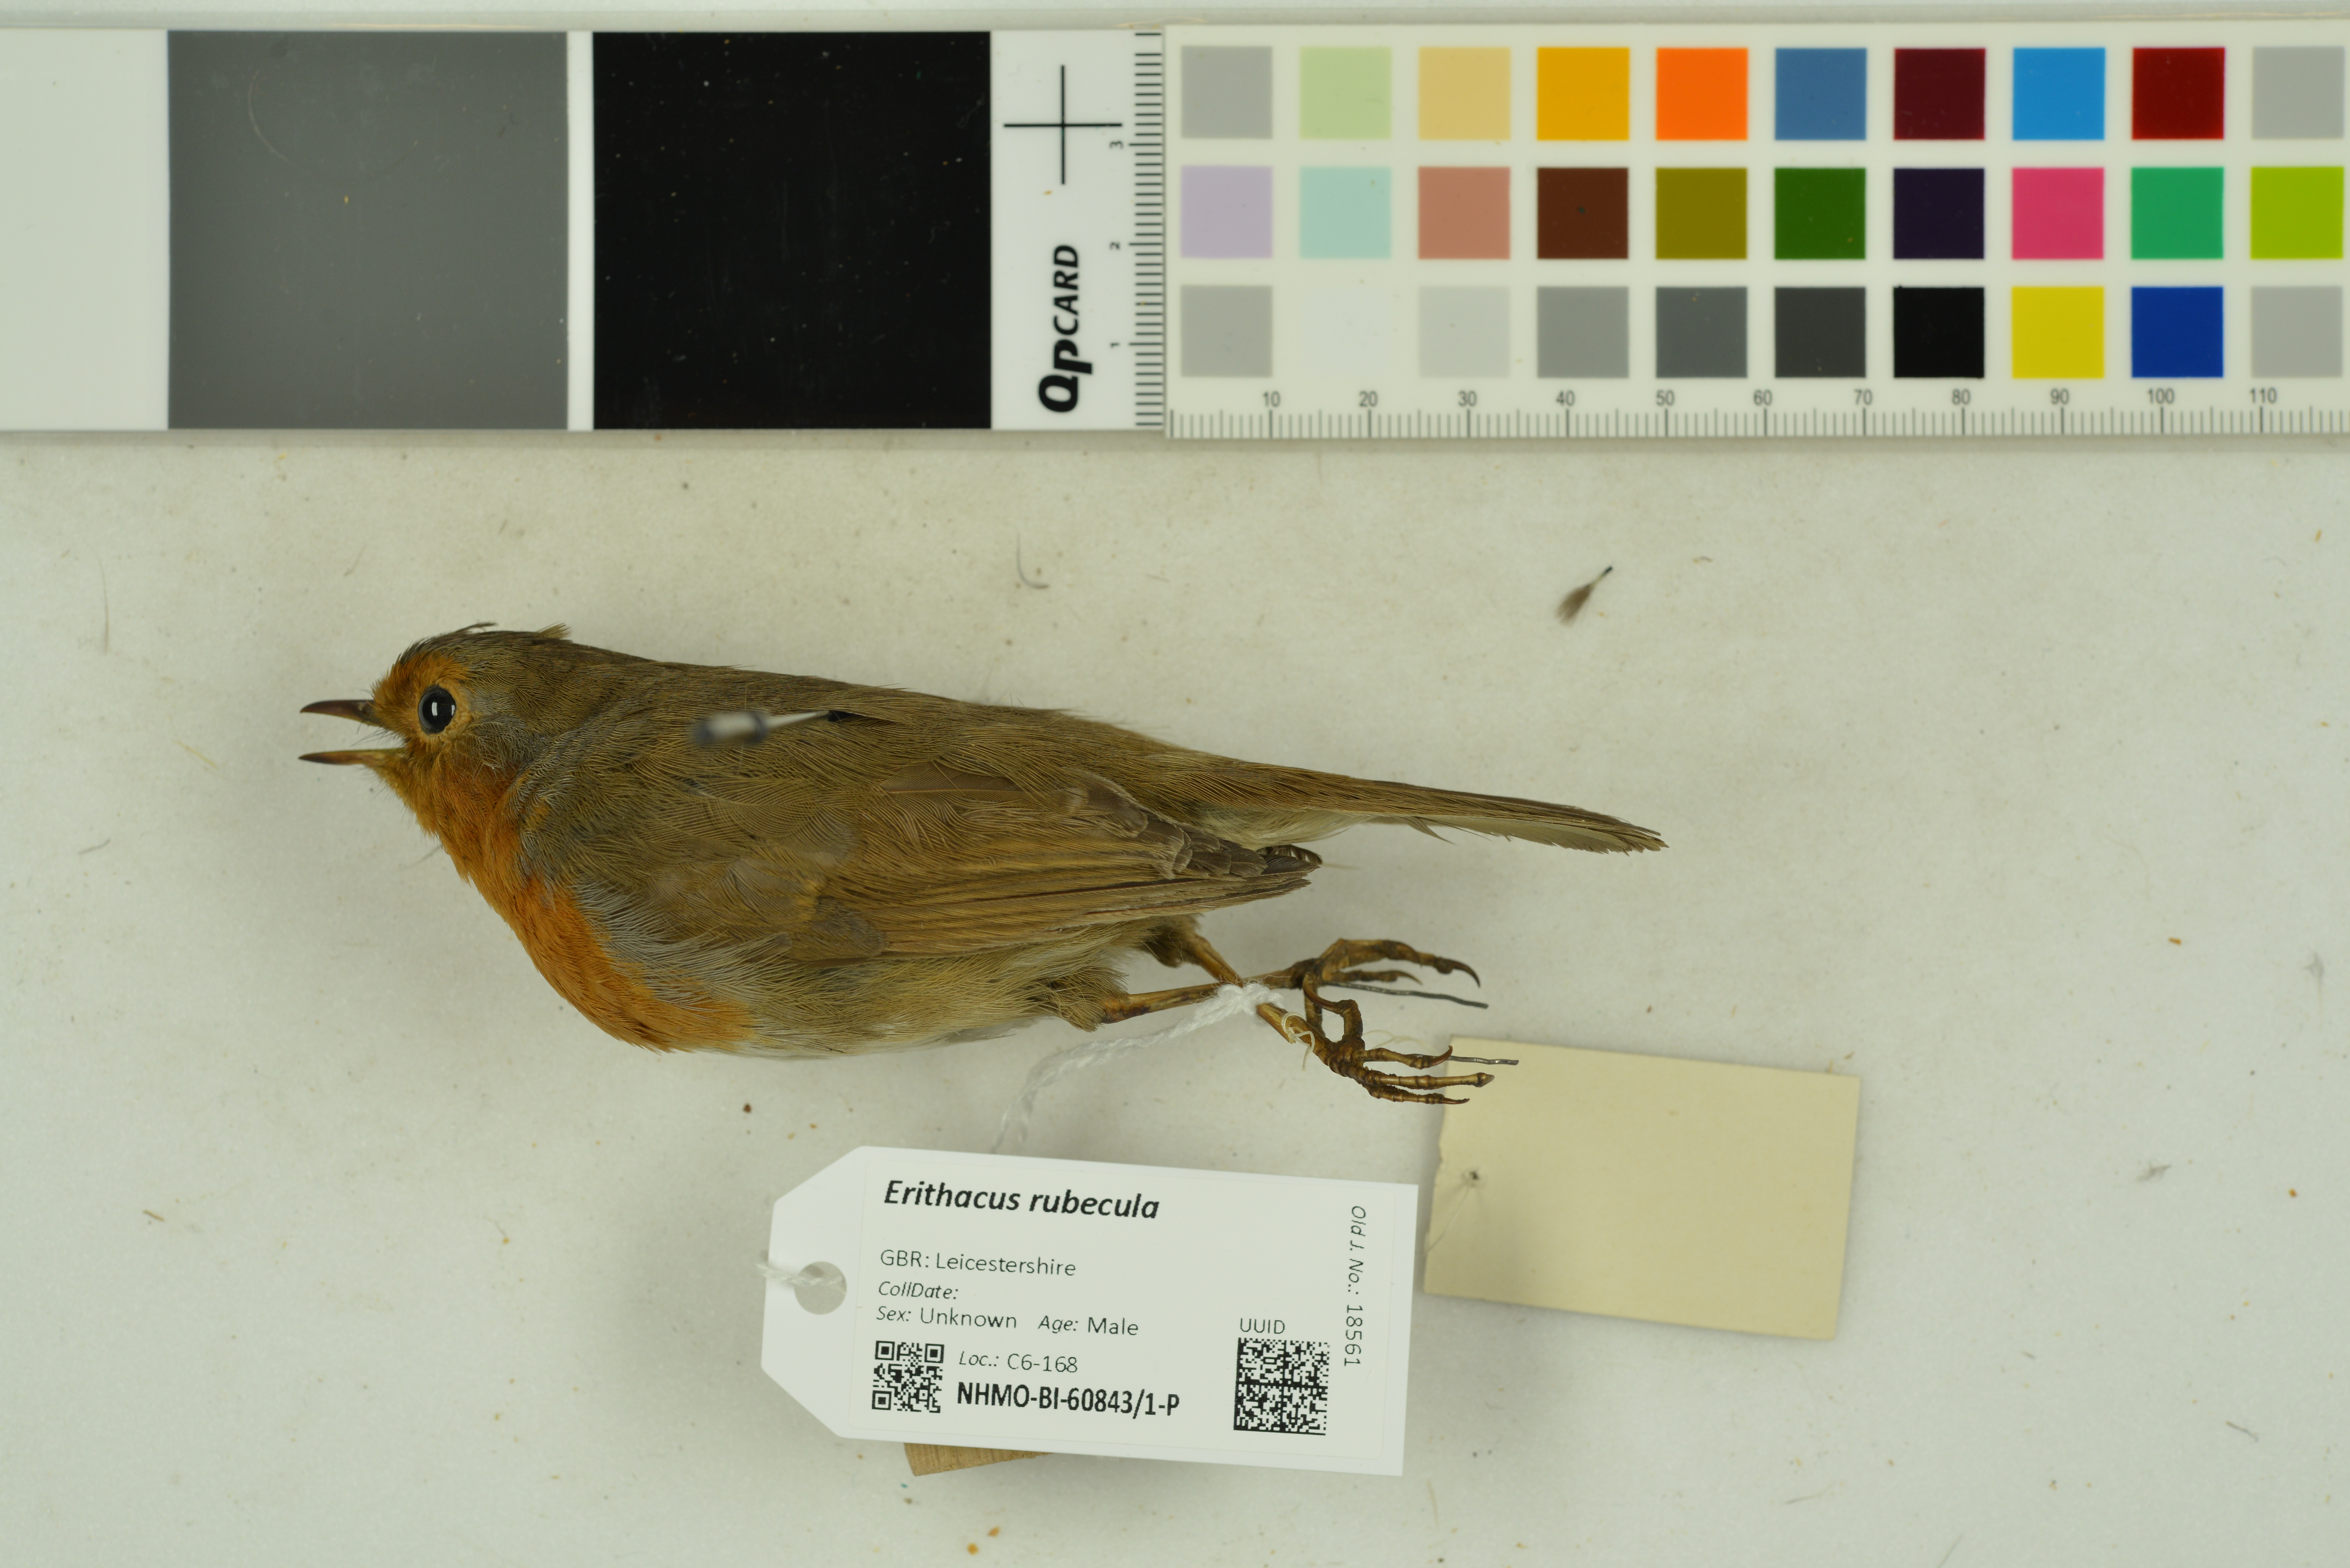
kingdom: Animalia
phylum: Chordata
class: Aves
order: Passeriformes
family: Muscicapidae
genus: Erithacus
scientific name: Erithacus rubecula
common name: European robin
